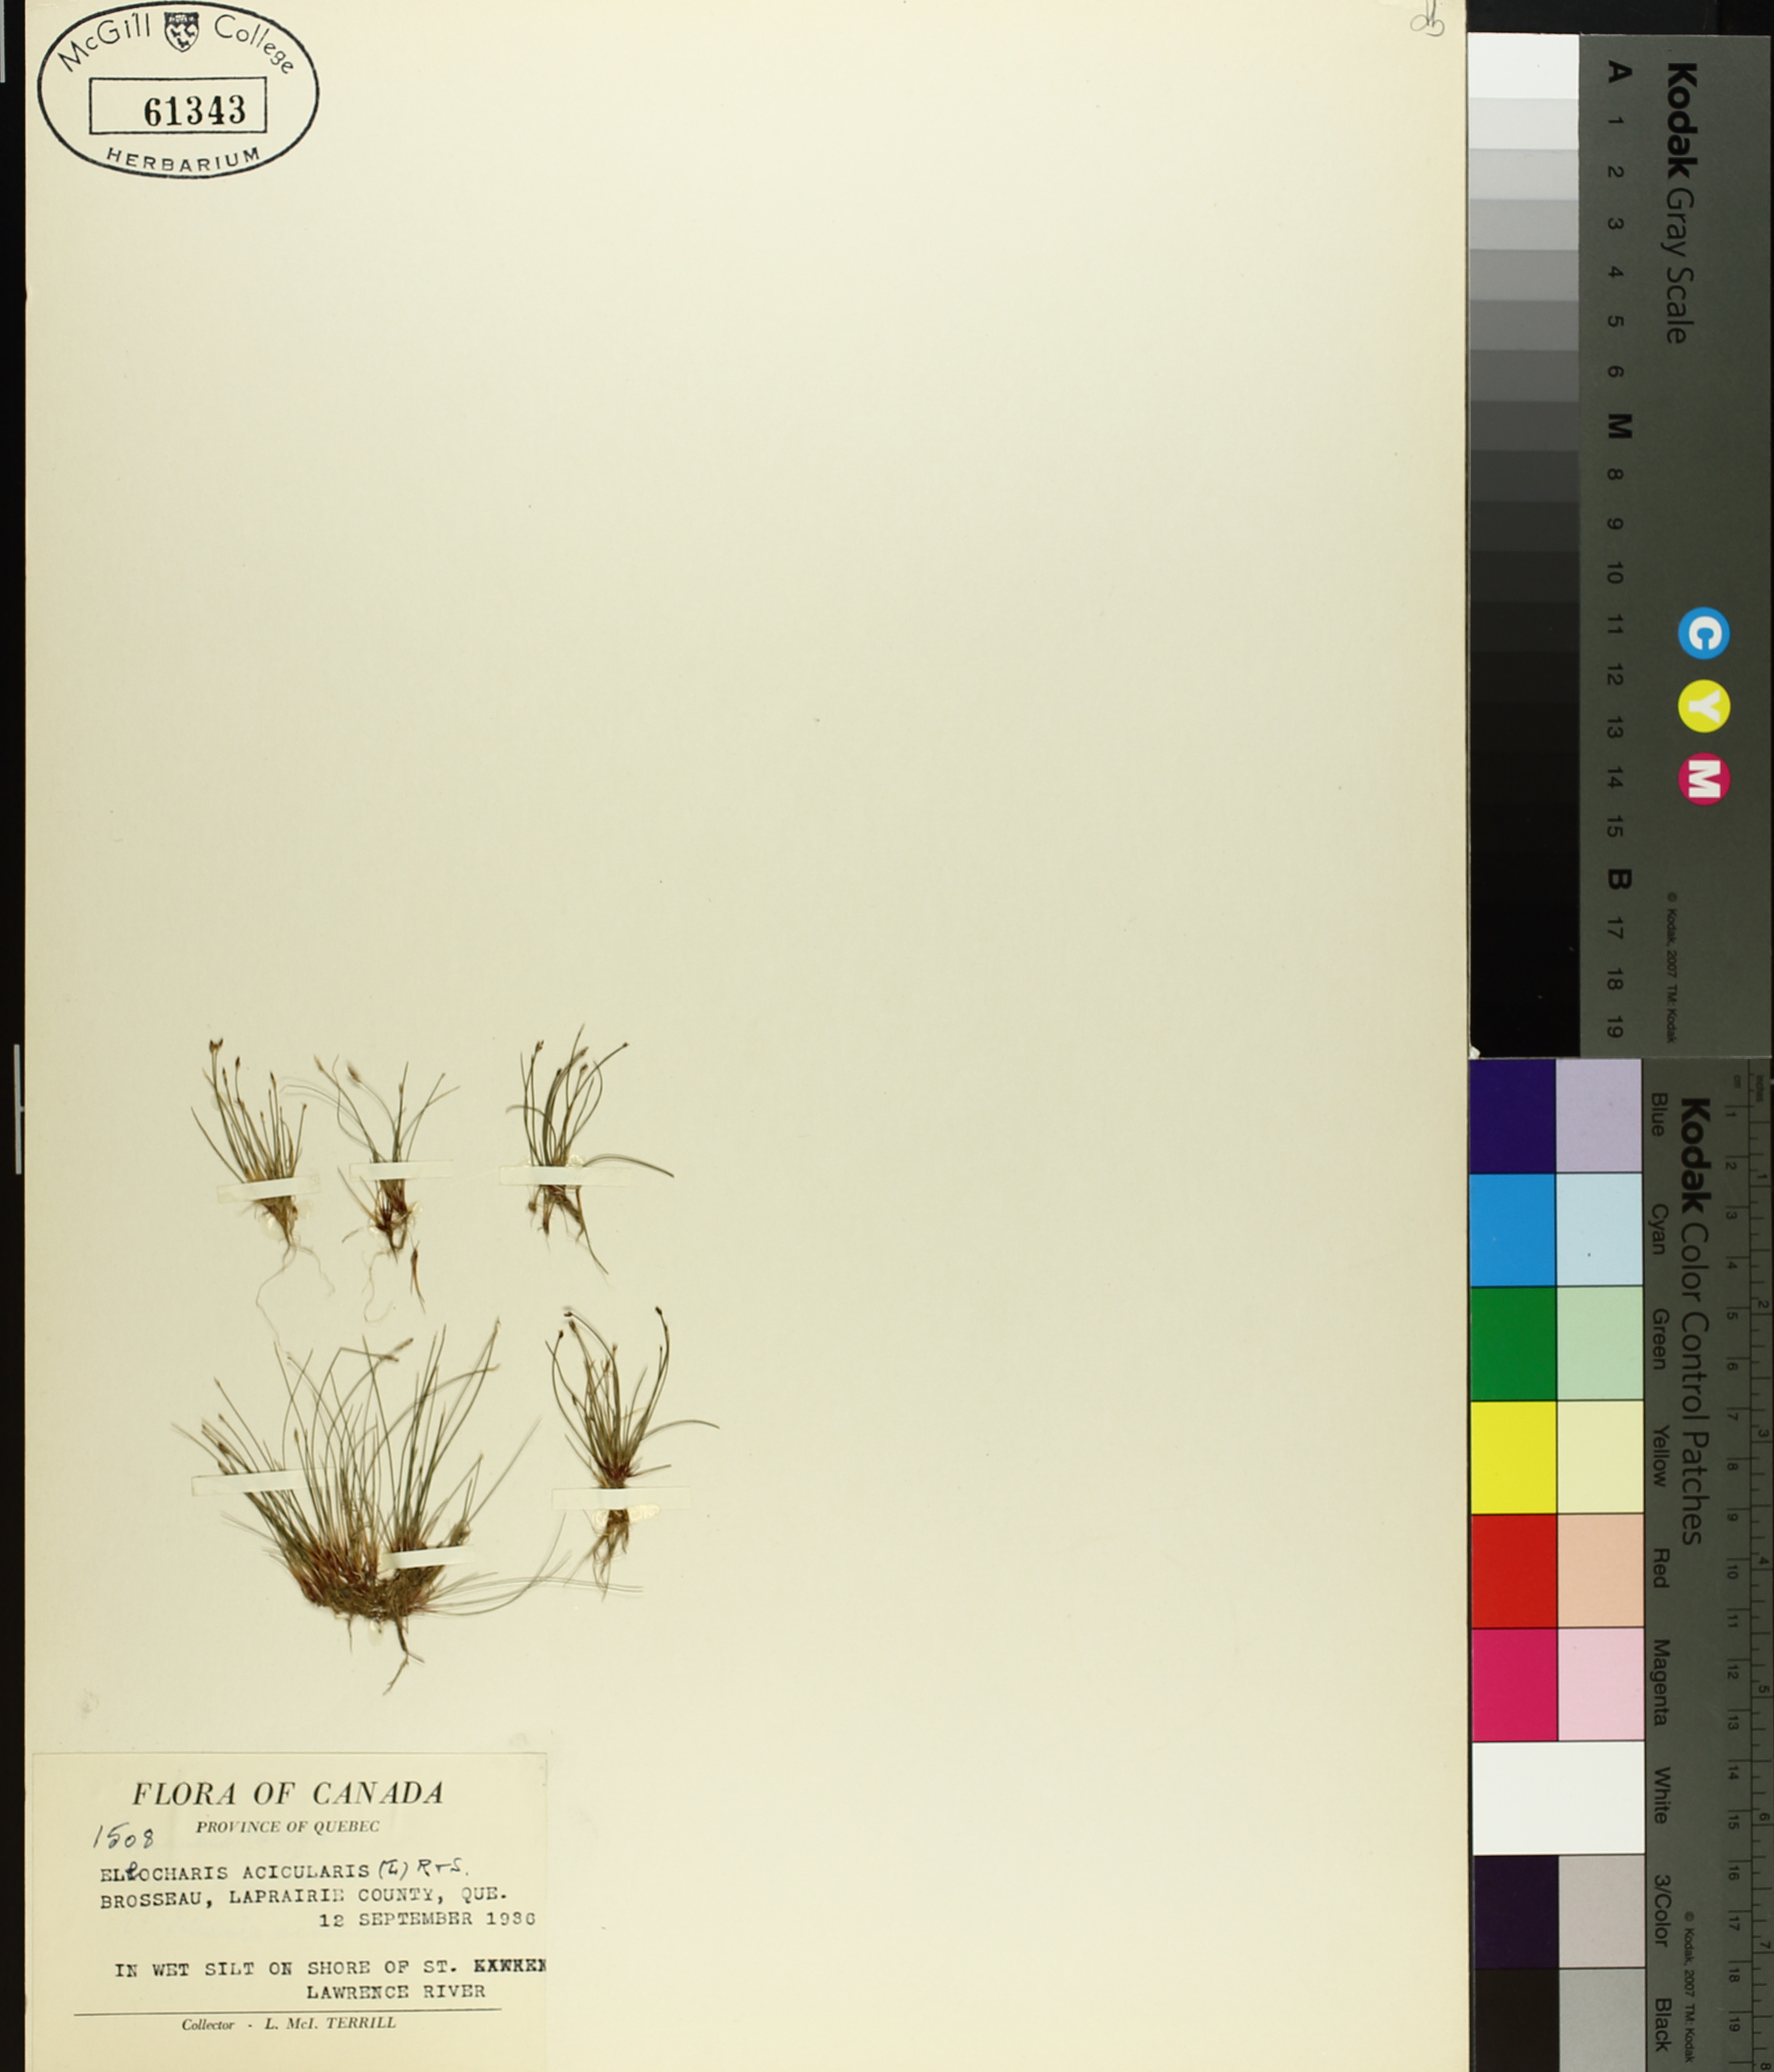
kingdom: Plantae
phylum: Tracheophyta
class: Liliopsida
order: Poales
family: Cyperaceae
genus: Eleocharis
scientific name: Eleocharis acicularis
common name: Needle spike-rush
